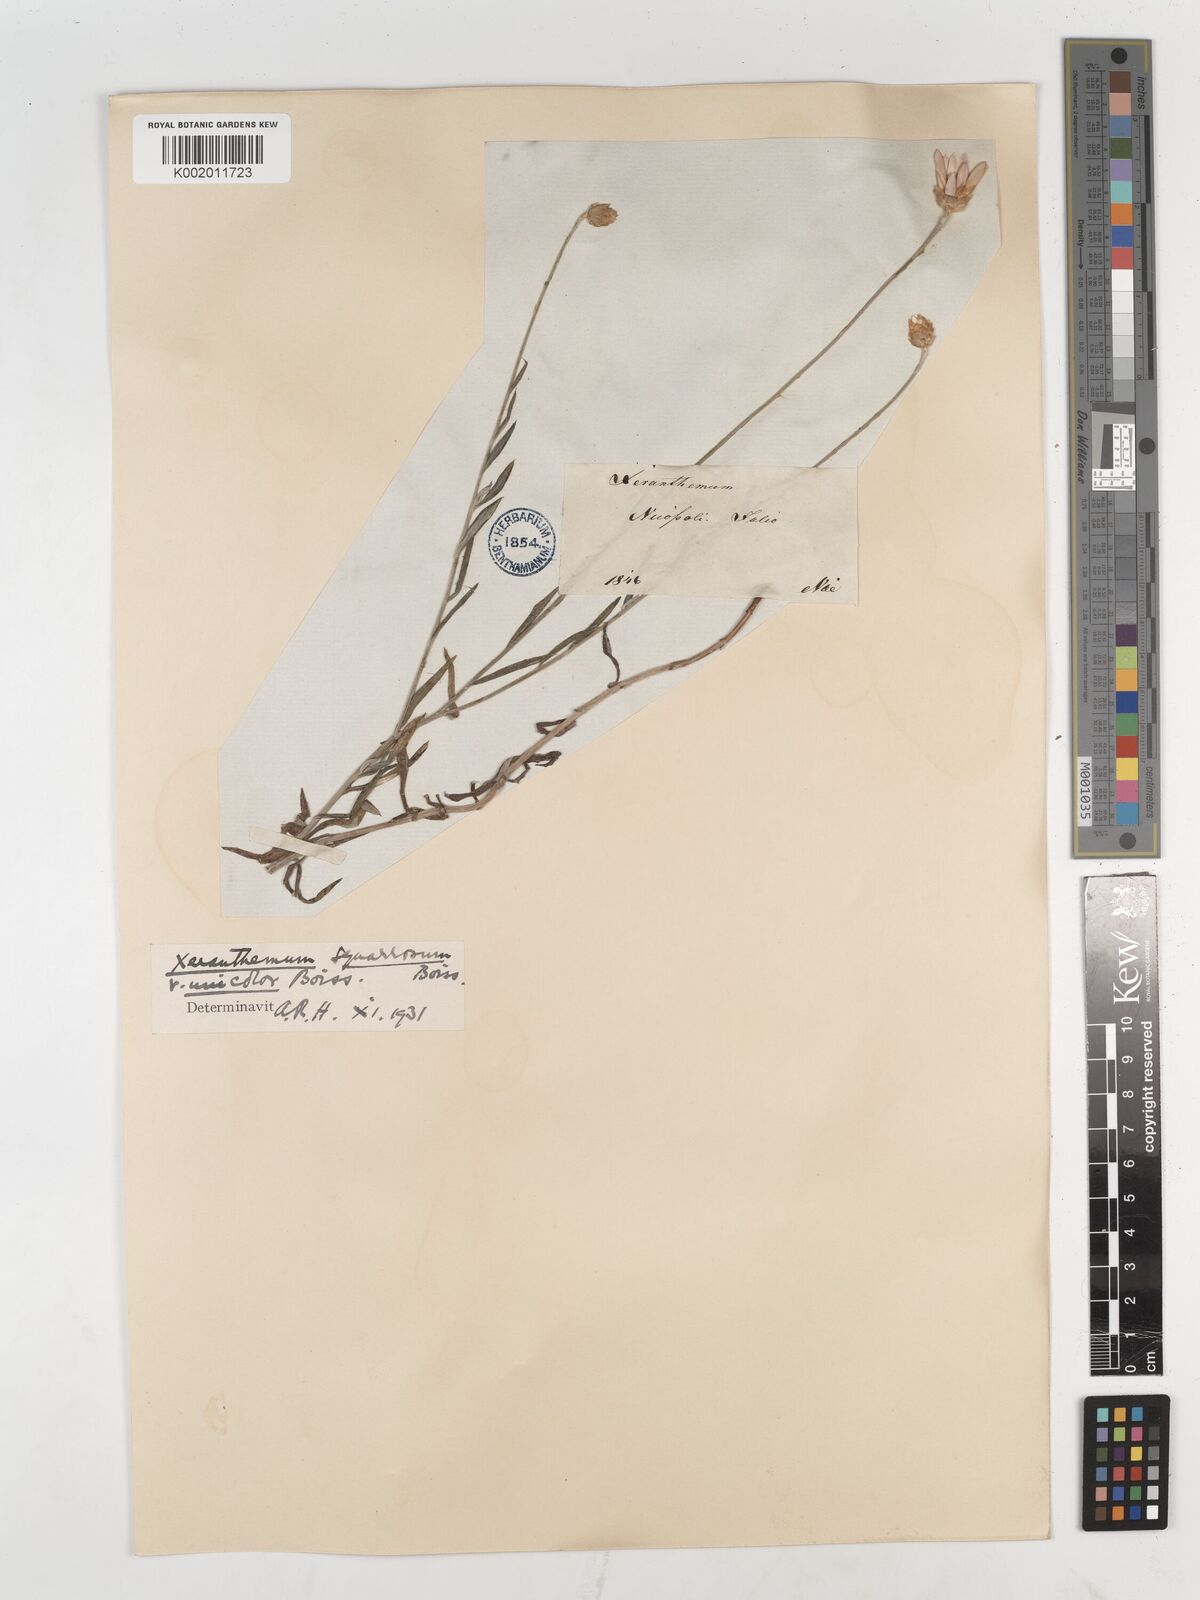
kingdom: Plantae
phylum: Tracheophyta
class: Magnoliopsida
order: Asterales
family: Asteraceae
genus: Xeranthemum
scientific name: Xeranthemum squarrosum
